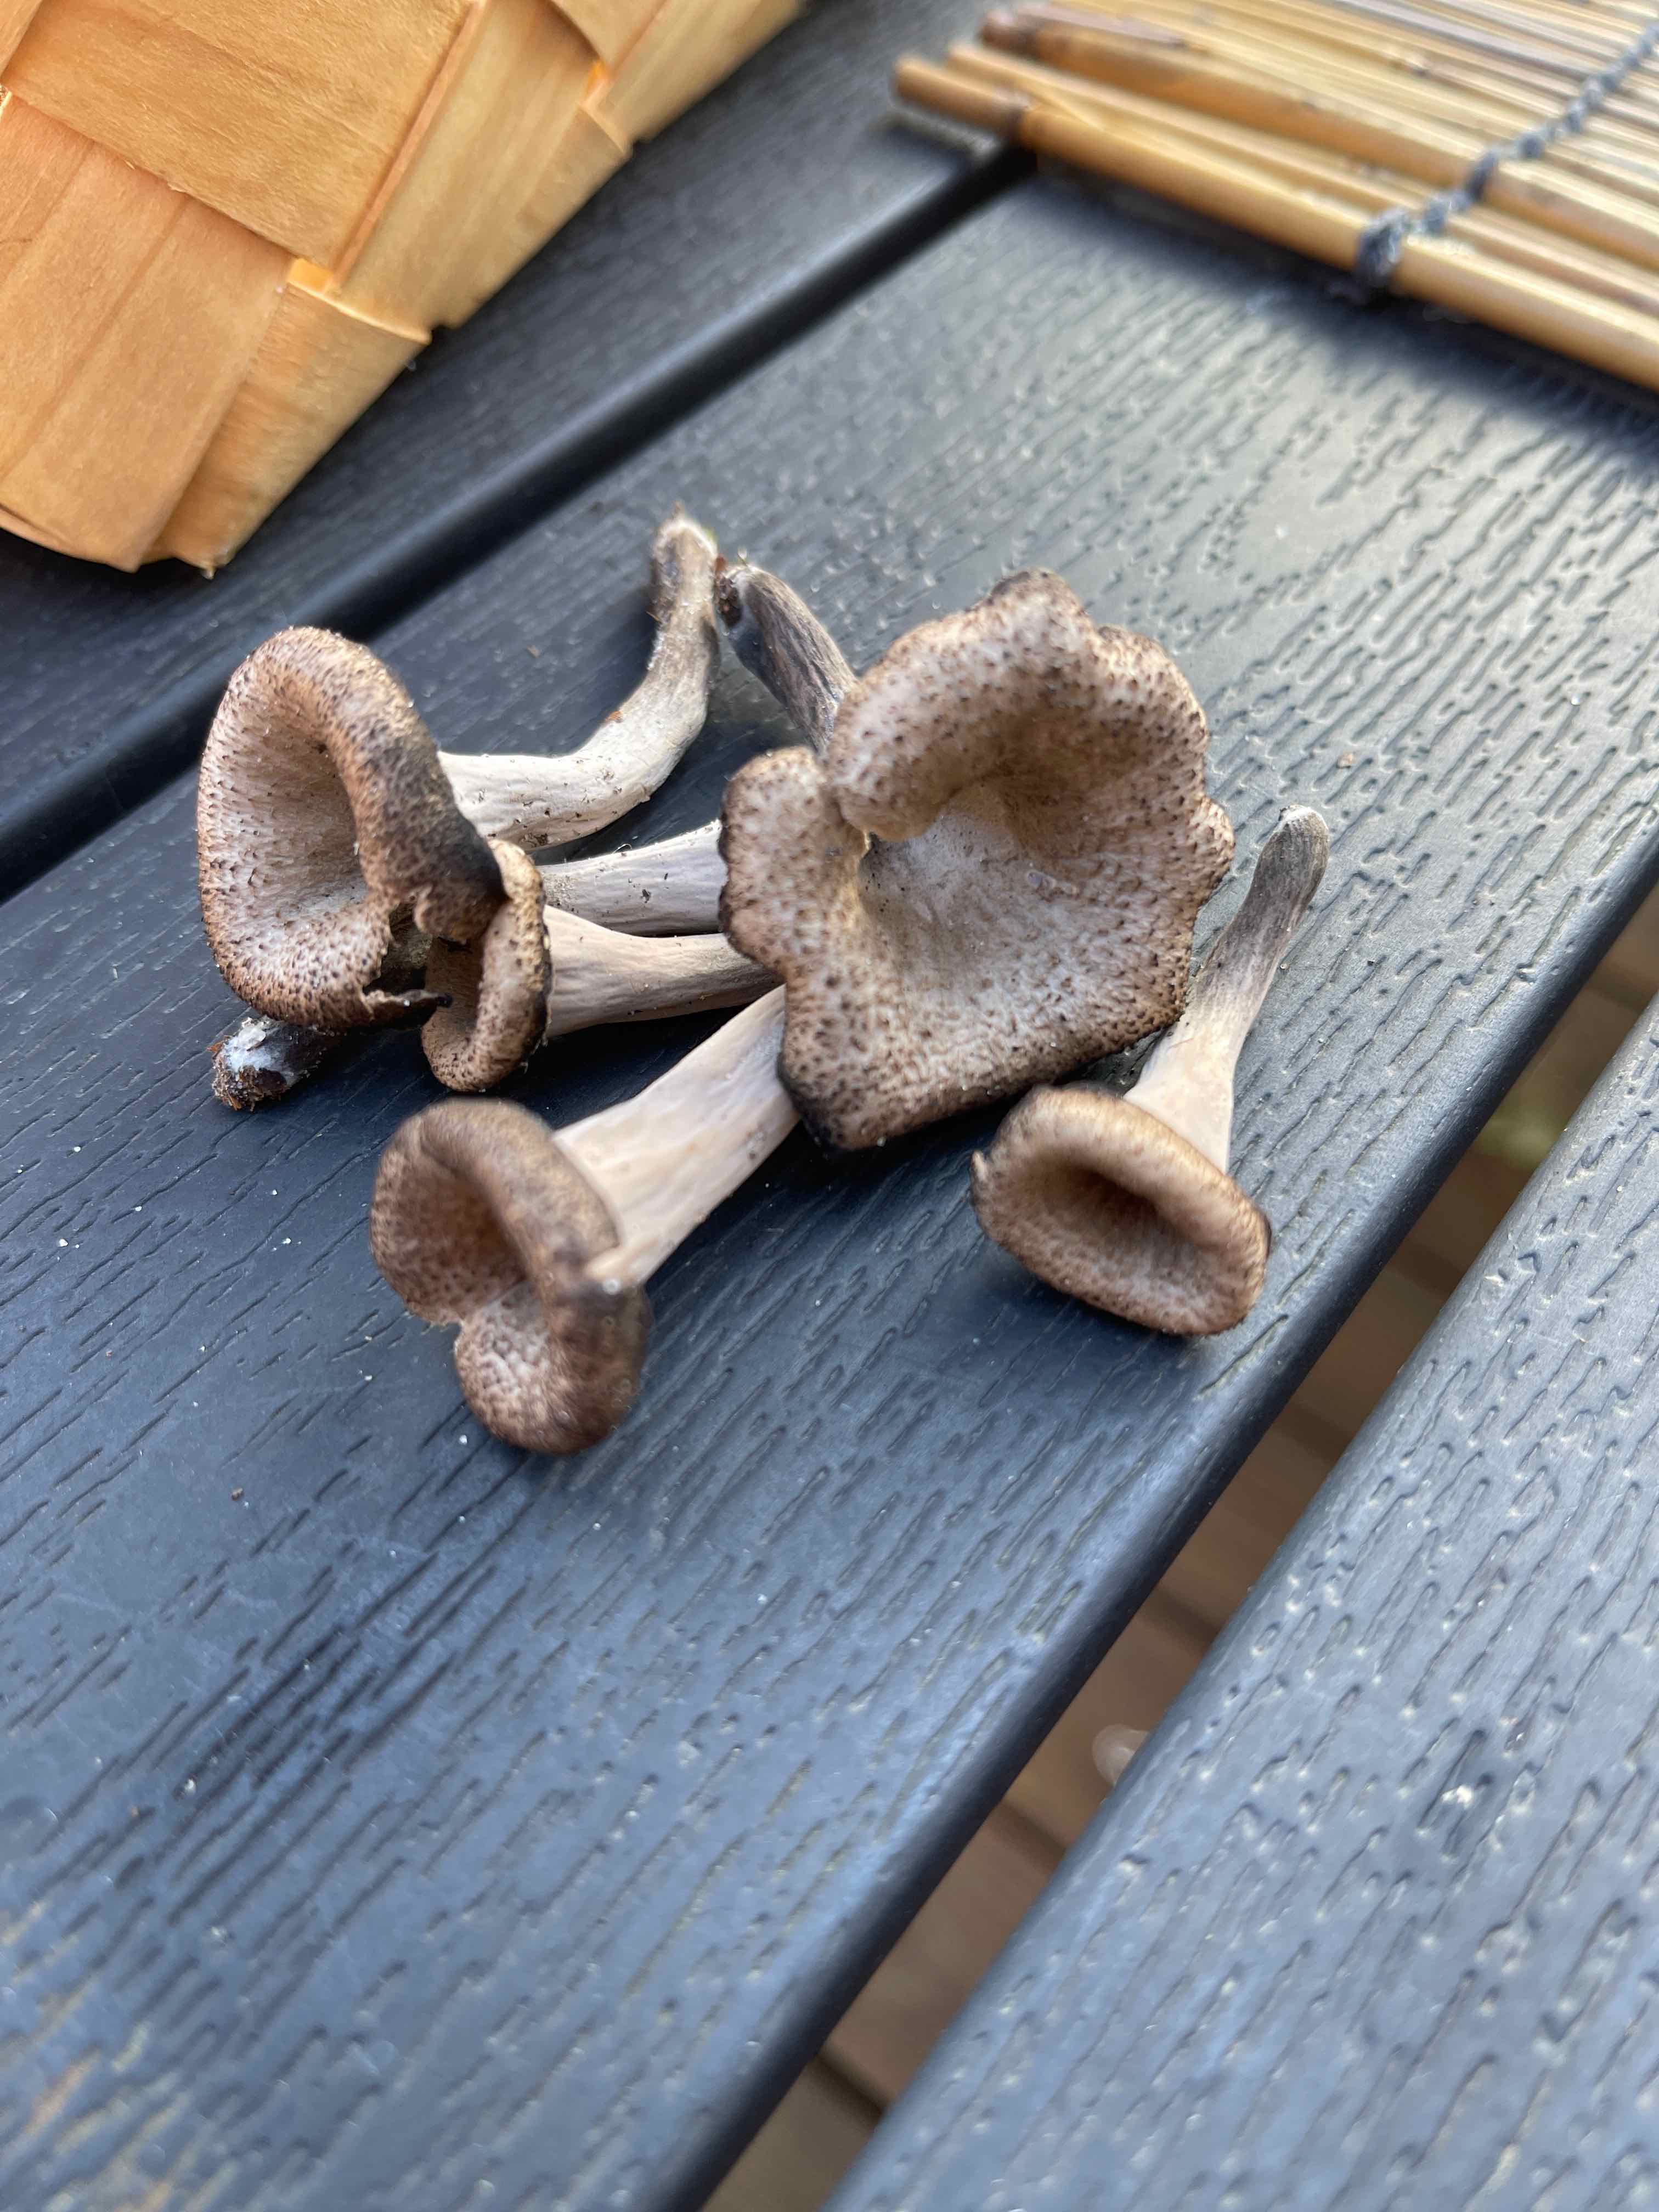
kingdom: Fungi
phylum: Basidiomycota
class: Agaricomycetes
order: Cantharellales
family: Hydnaceae
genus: Craterellus
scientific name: Craterellus cornucopioides
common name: trompetsvamp
